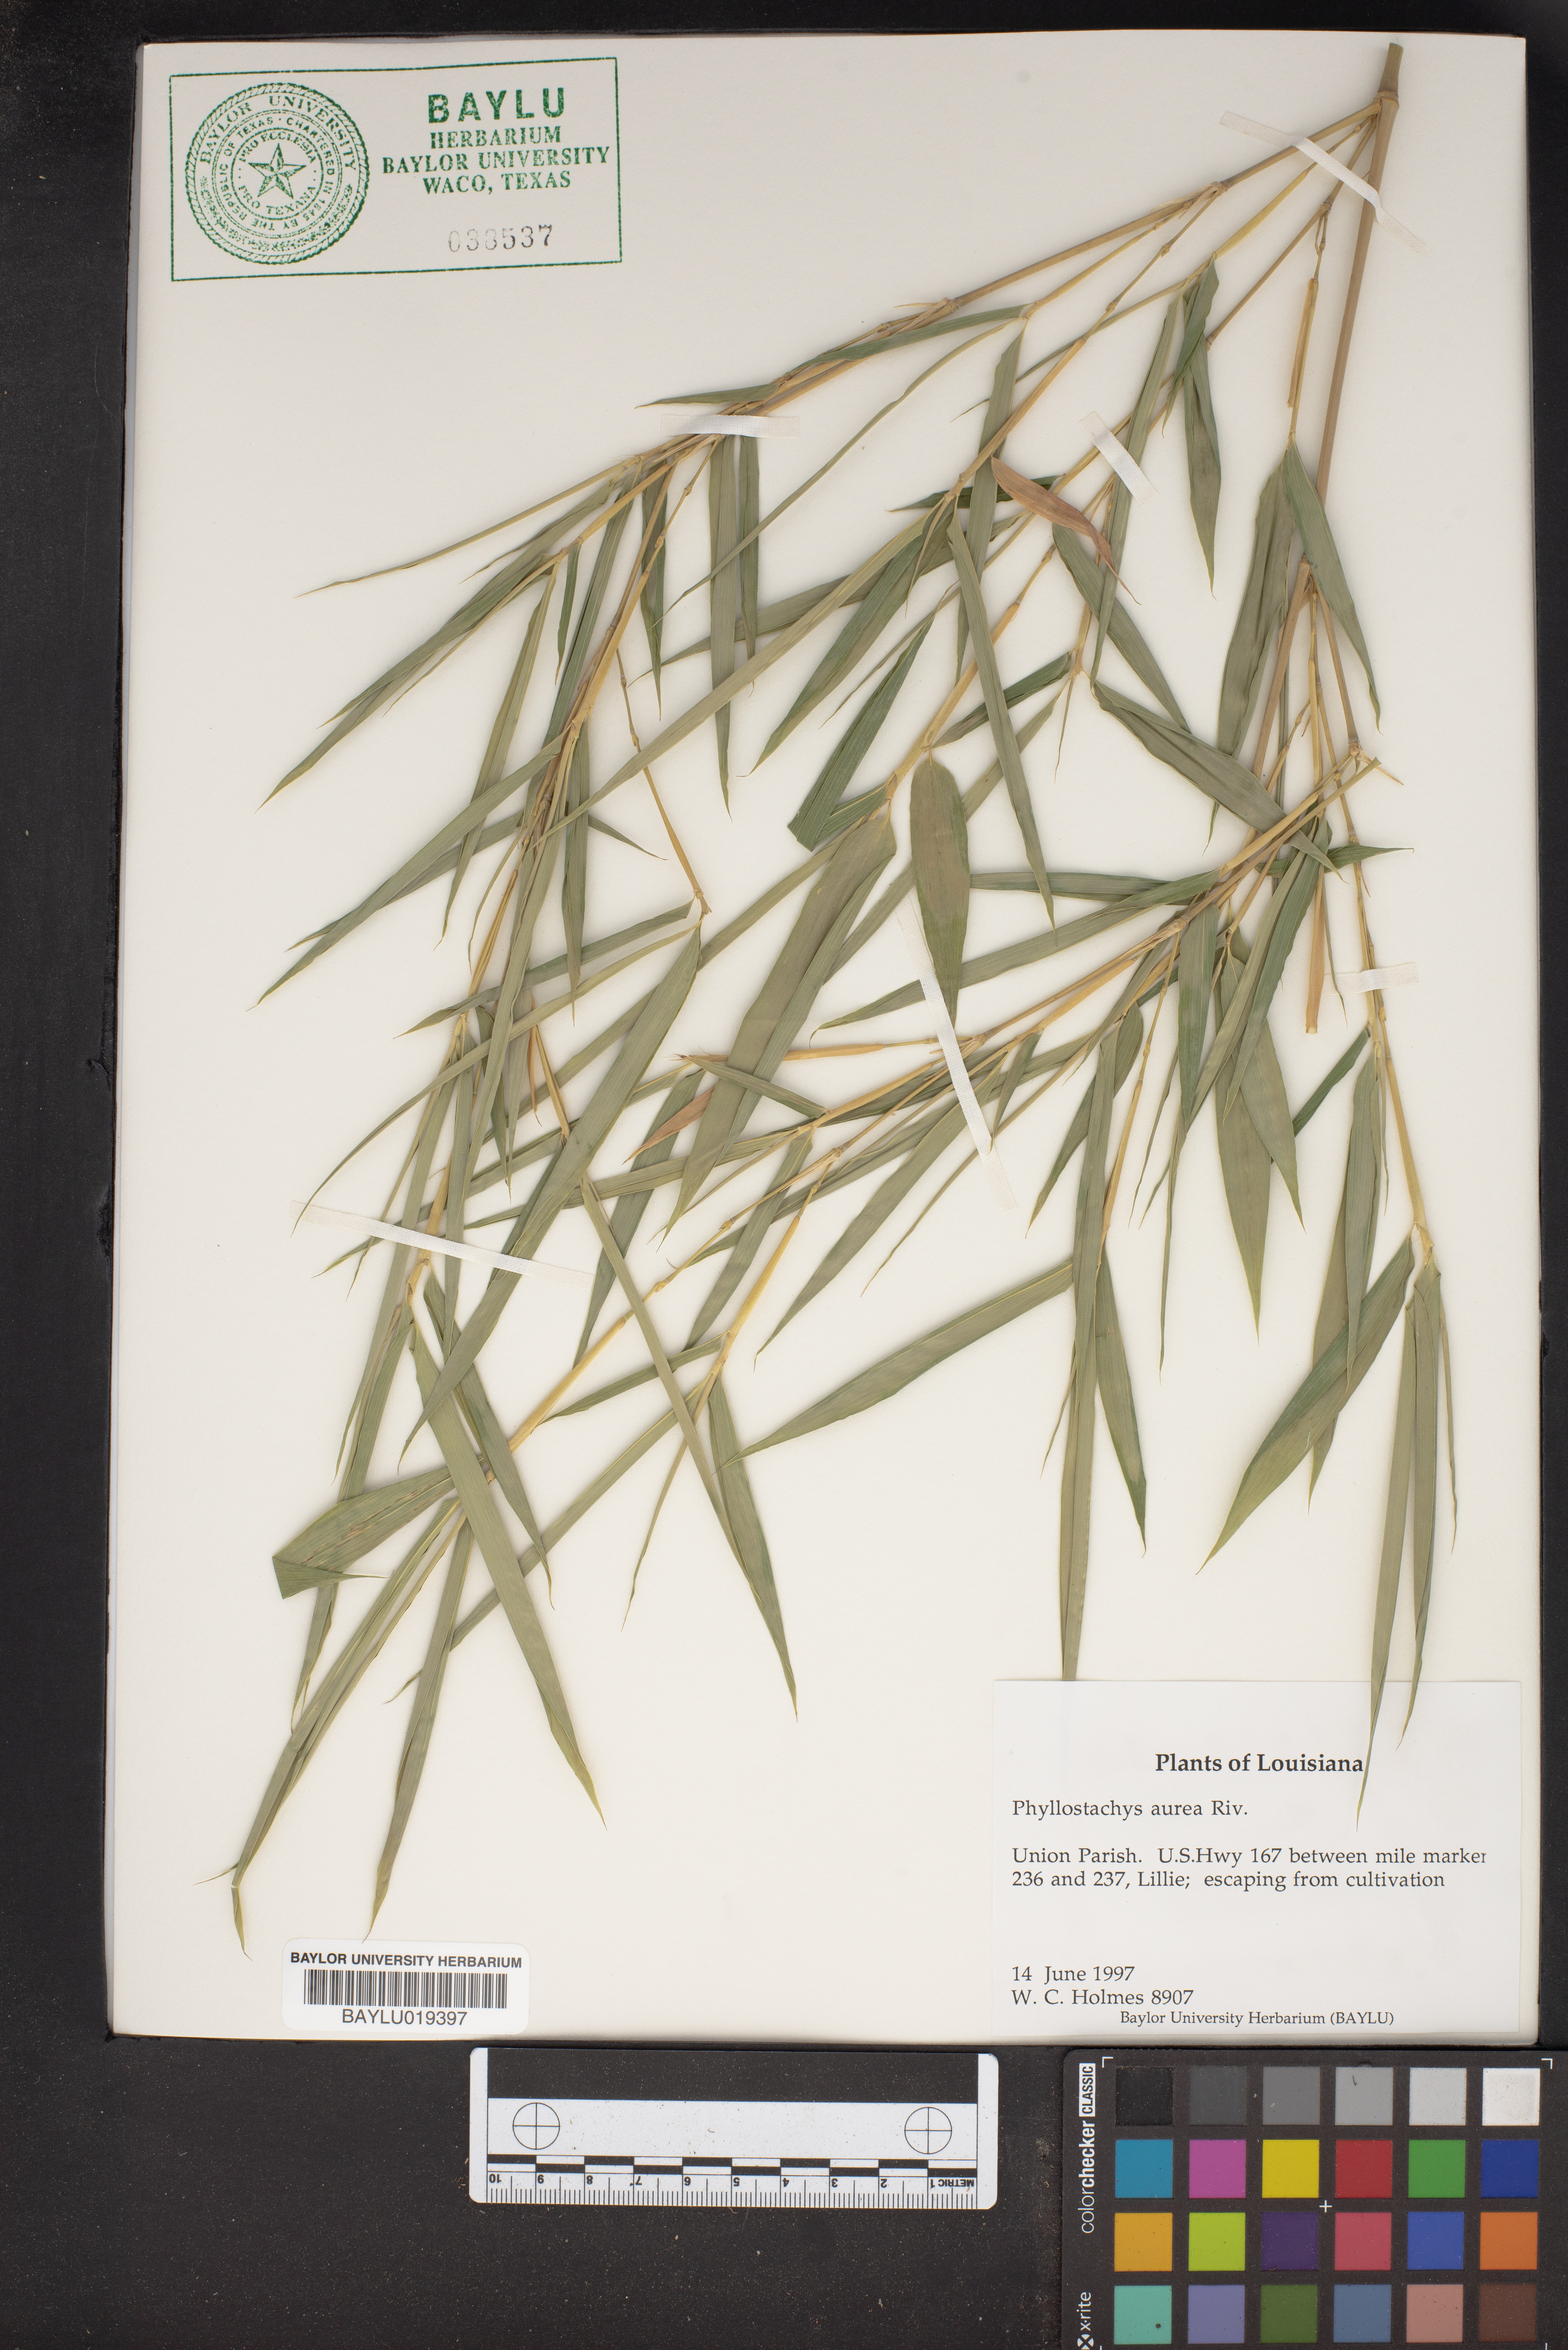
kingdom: Plantae
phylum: Tracheophyta
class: Liliopsida
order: Poales
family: Poaceae
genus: Phyllostachys
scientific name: Phyllostachys aurea
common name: Golden bamboo
